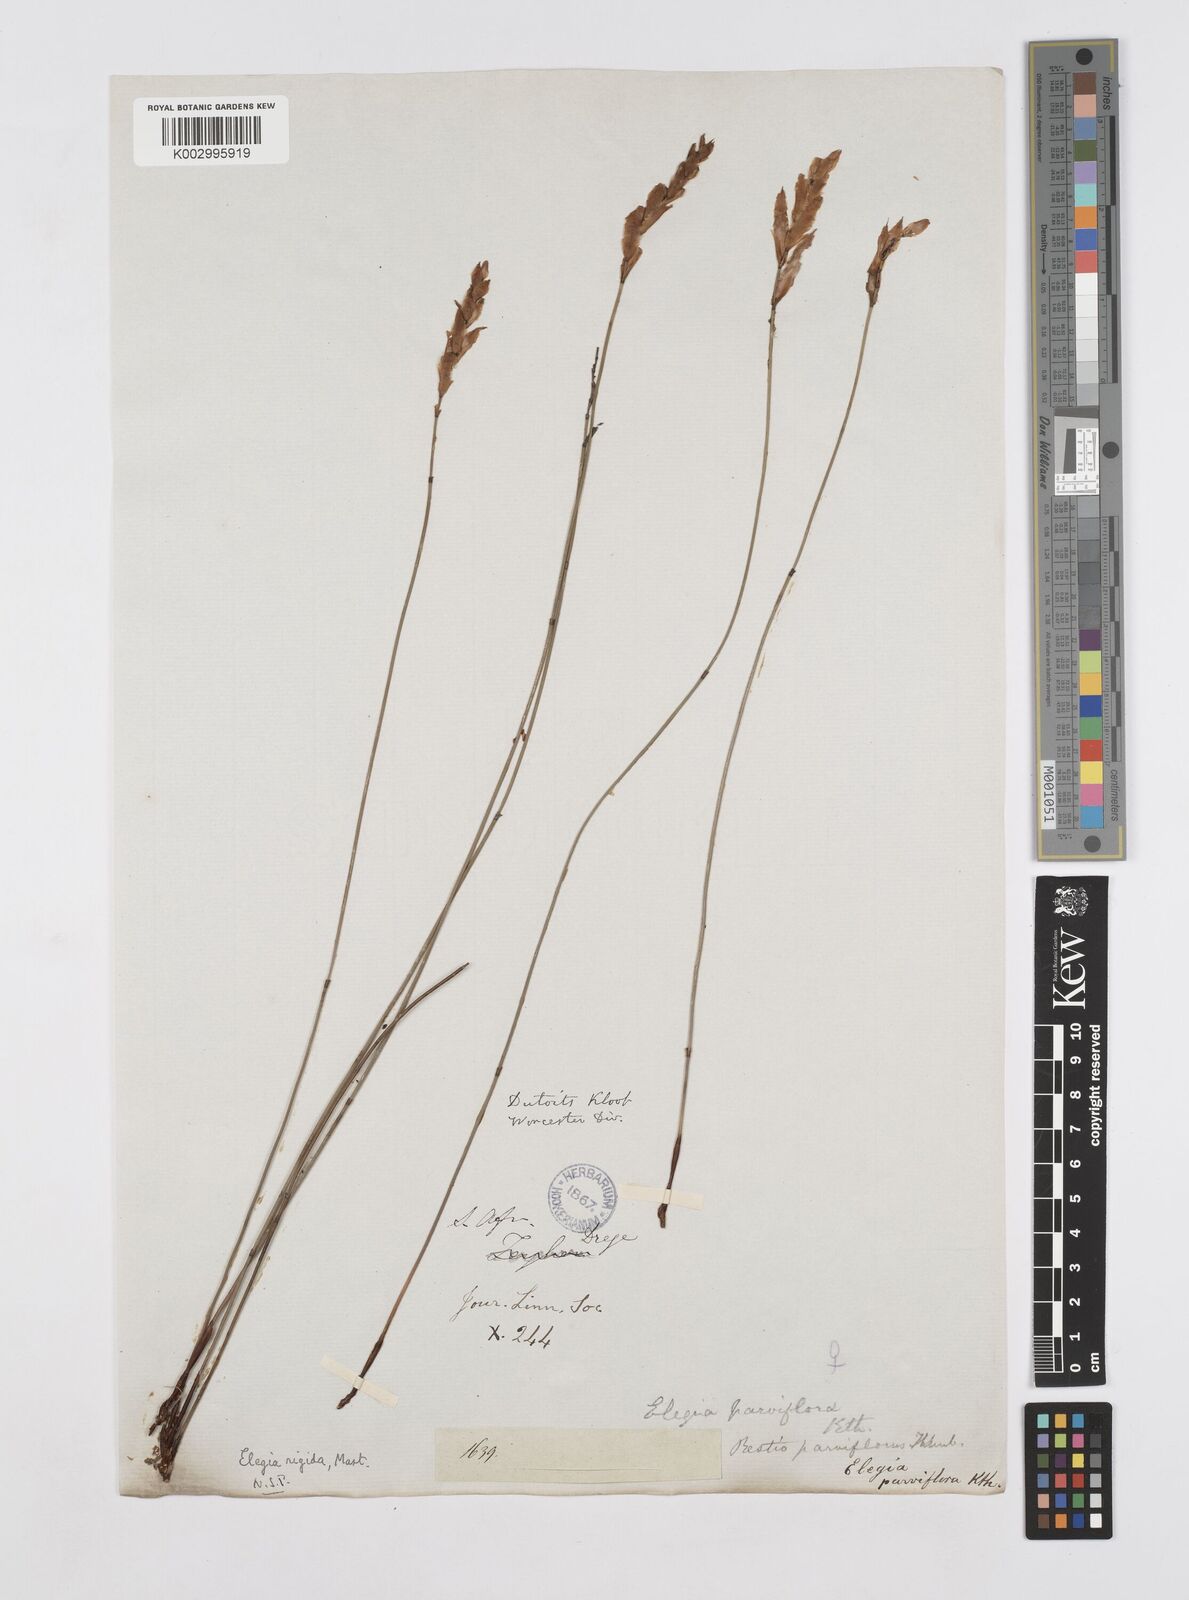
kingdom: Plantae
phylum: Tracheophyta
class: Liliopsida
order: Poales
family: Restionaceae
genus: Cannomois
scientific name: Cannomois parviflora
